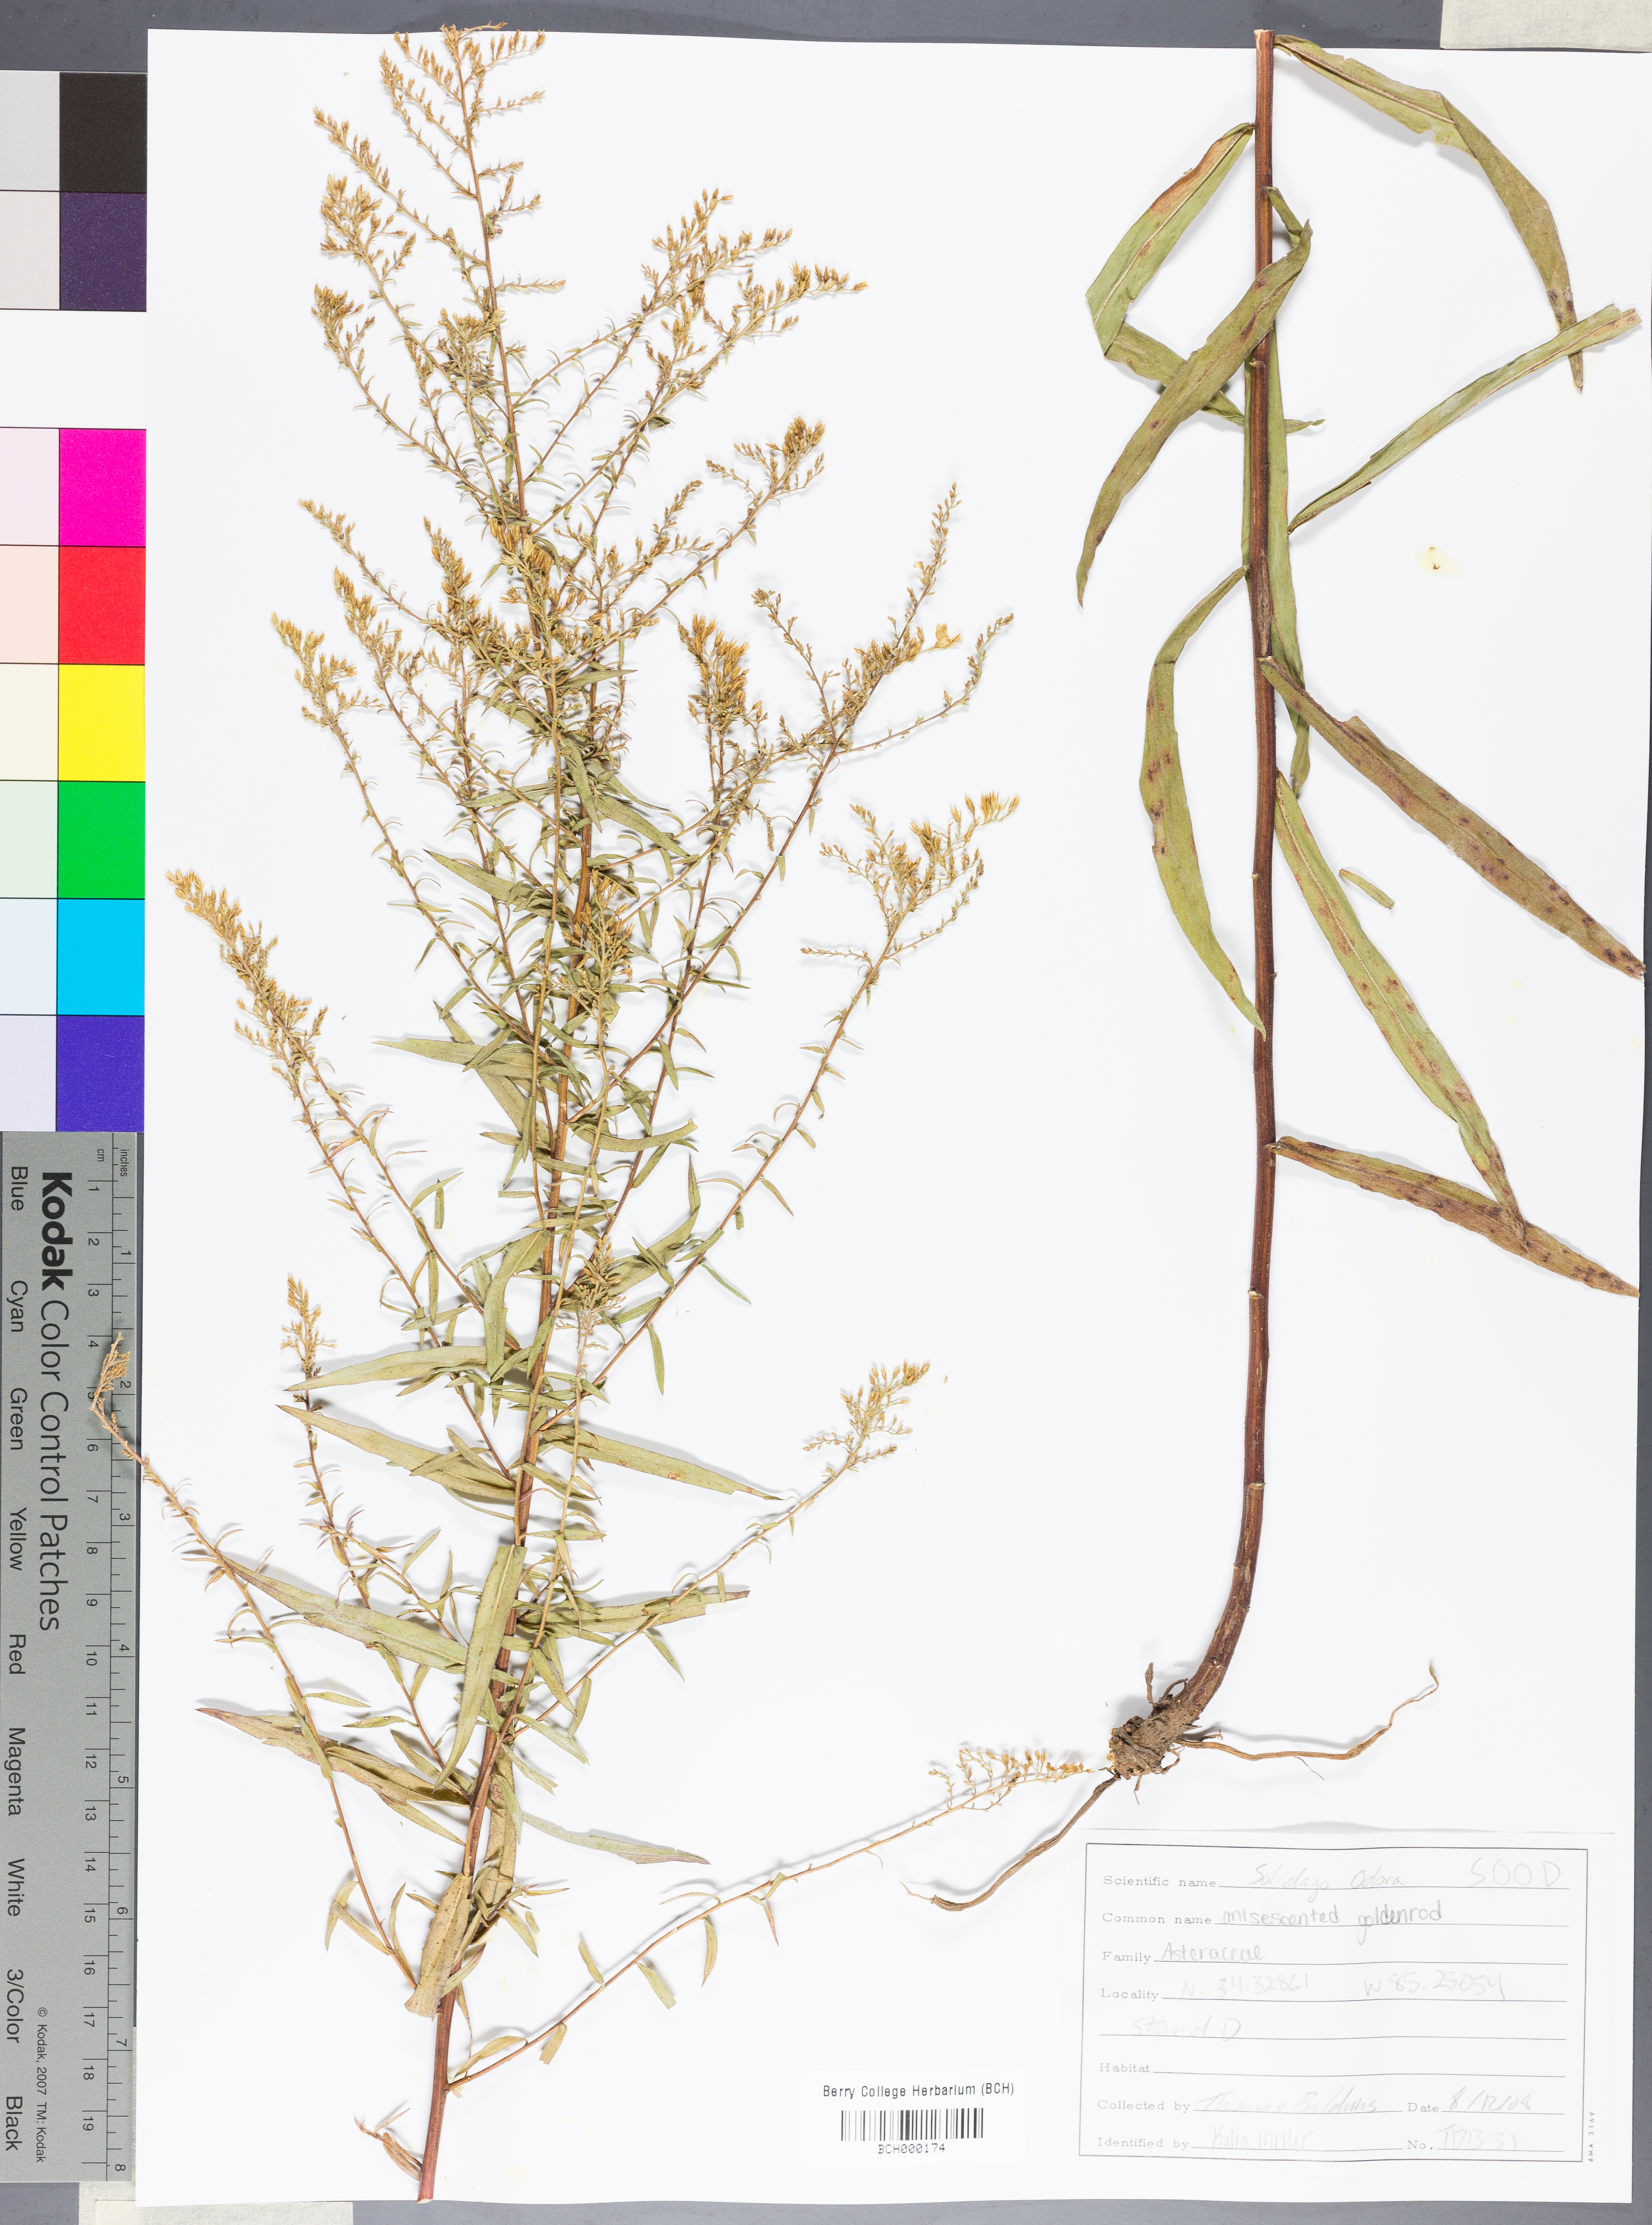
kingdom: Plantae
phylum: Tracheophyta
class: Magnoliopsida
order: Asterales
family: Asteraceae
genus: Solidago
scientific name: Solidago odora
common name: Anise-scented goldenrod
